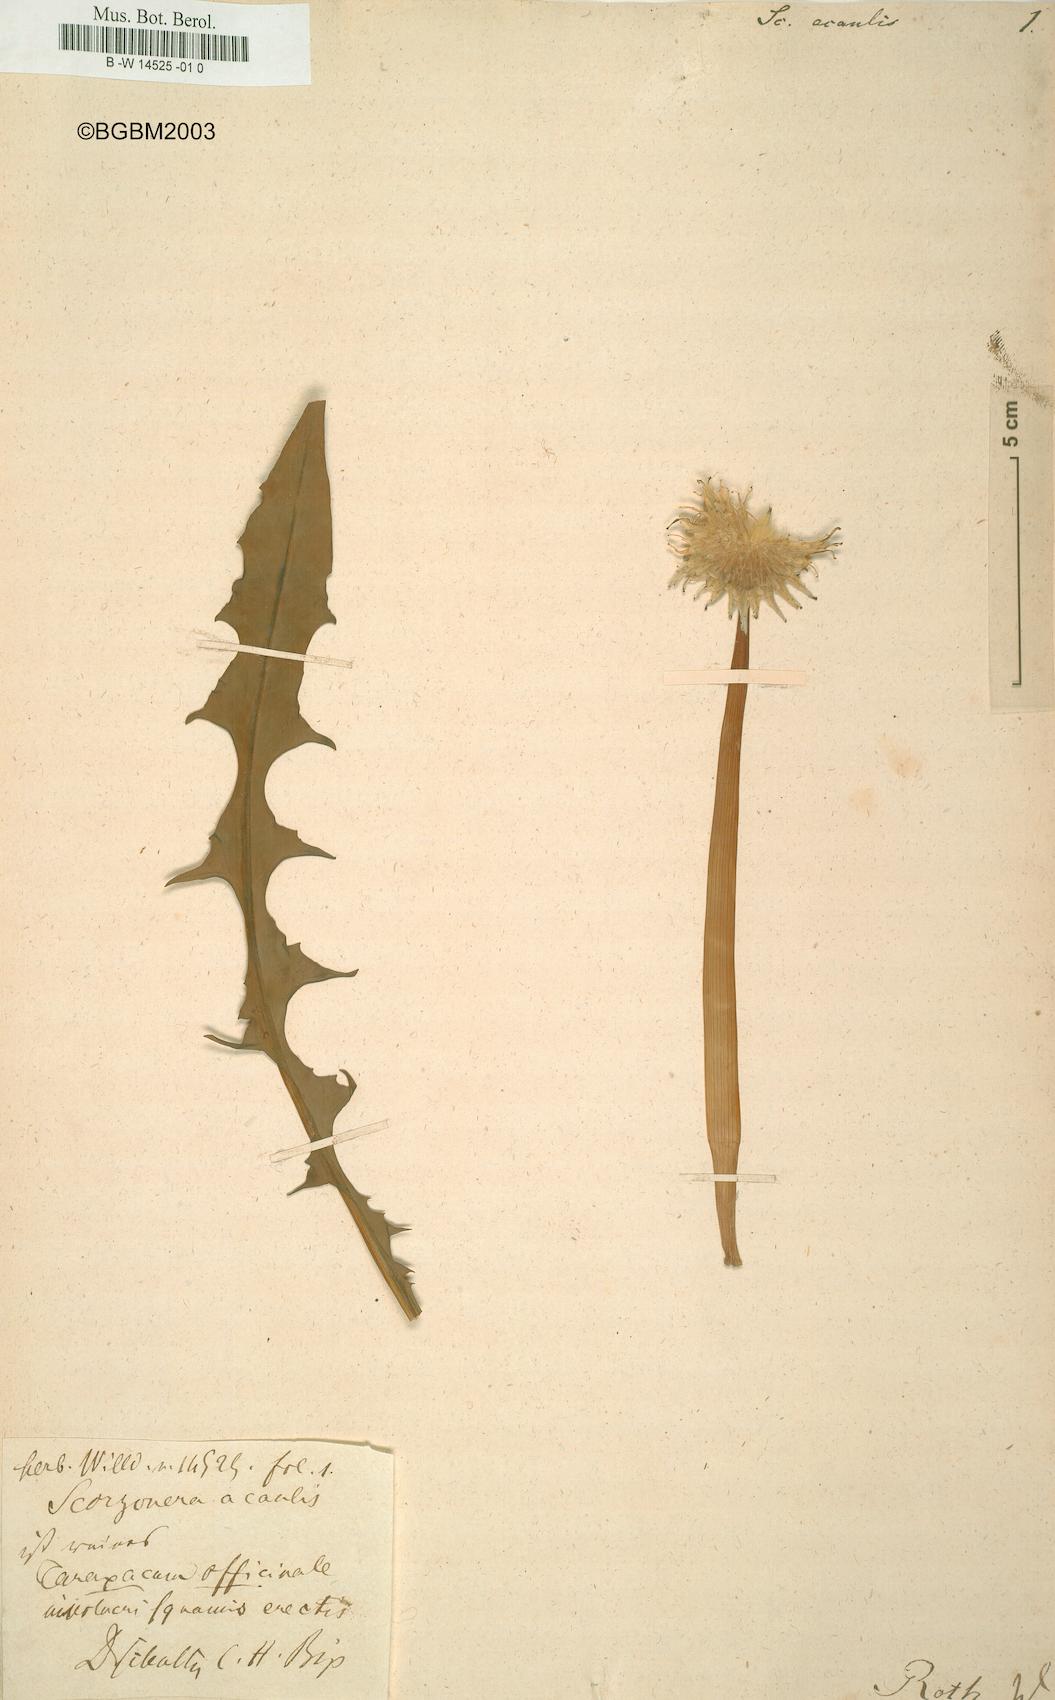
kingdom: Plantae
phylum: Tracheophyta
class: Magnoliopsida
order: Asterales
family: Asteraceae
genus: Scorzonera
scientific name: Scorzonera acaulis
